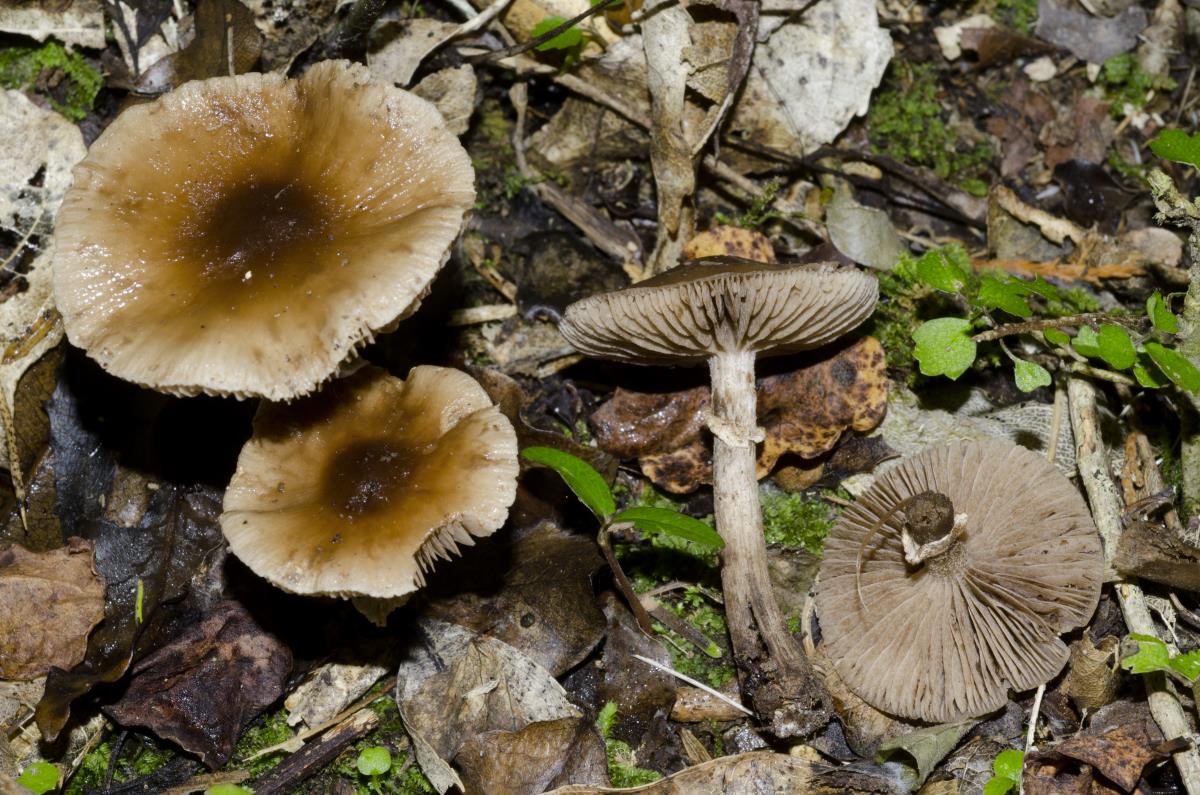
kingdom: Fungi
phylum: Basidiomycota
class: Agaricomycetes
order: Agaricales
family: Tubariaceae
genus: Cyclocybe
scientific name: Cyclocybe erebia
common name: Dark fieldcap
